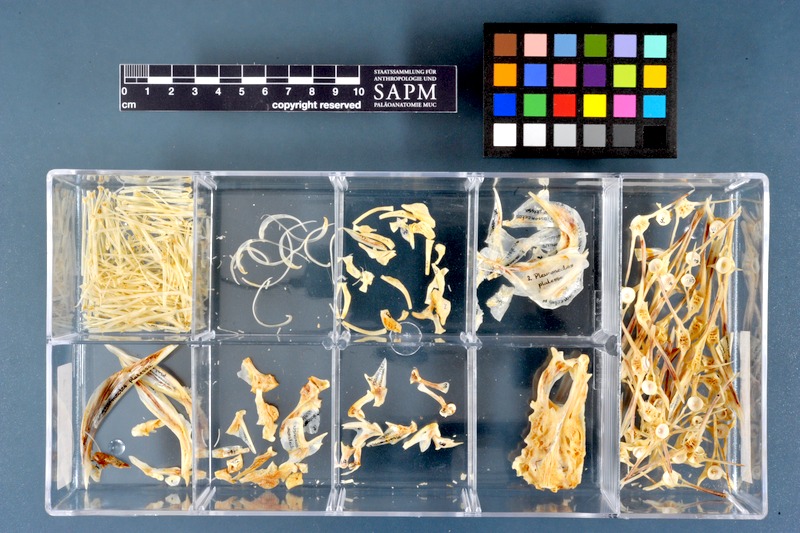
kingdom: Animalia
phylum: Chordata
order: Pleuronectiformes
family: Pleuronectidae
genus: Pleuronectes
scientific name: Pleuronectes platessa
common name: Plaice
